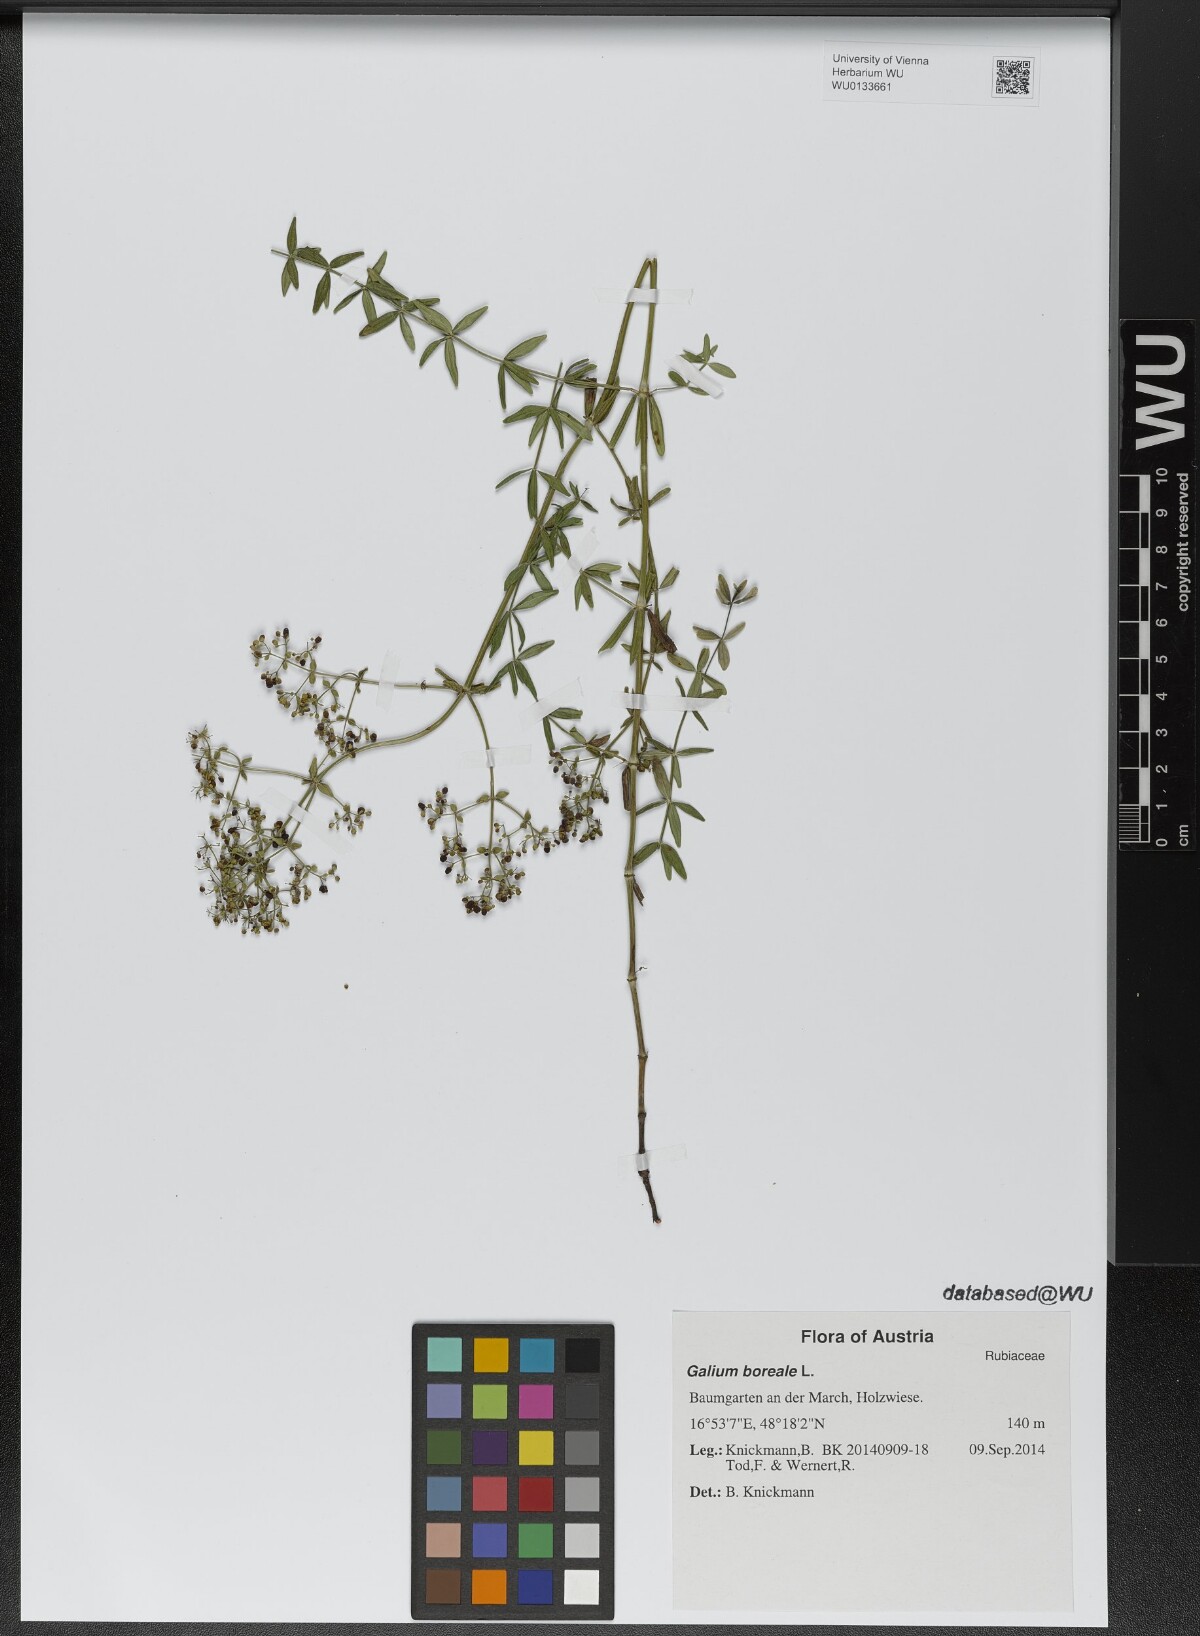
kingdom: Plantae
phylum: Tracheophyta
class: Magnoliopsida
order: Gentianales
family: Rubiaceae
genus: Galium
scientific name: Galium boreale
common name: Northern bedstraw
